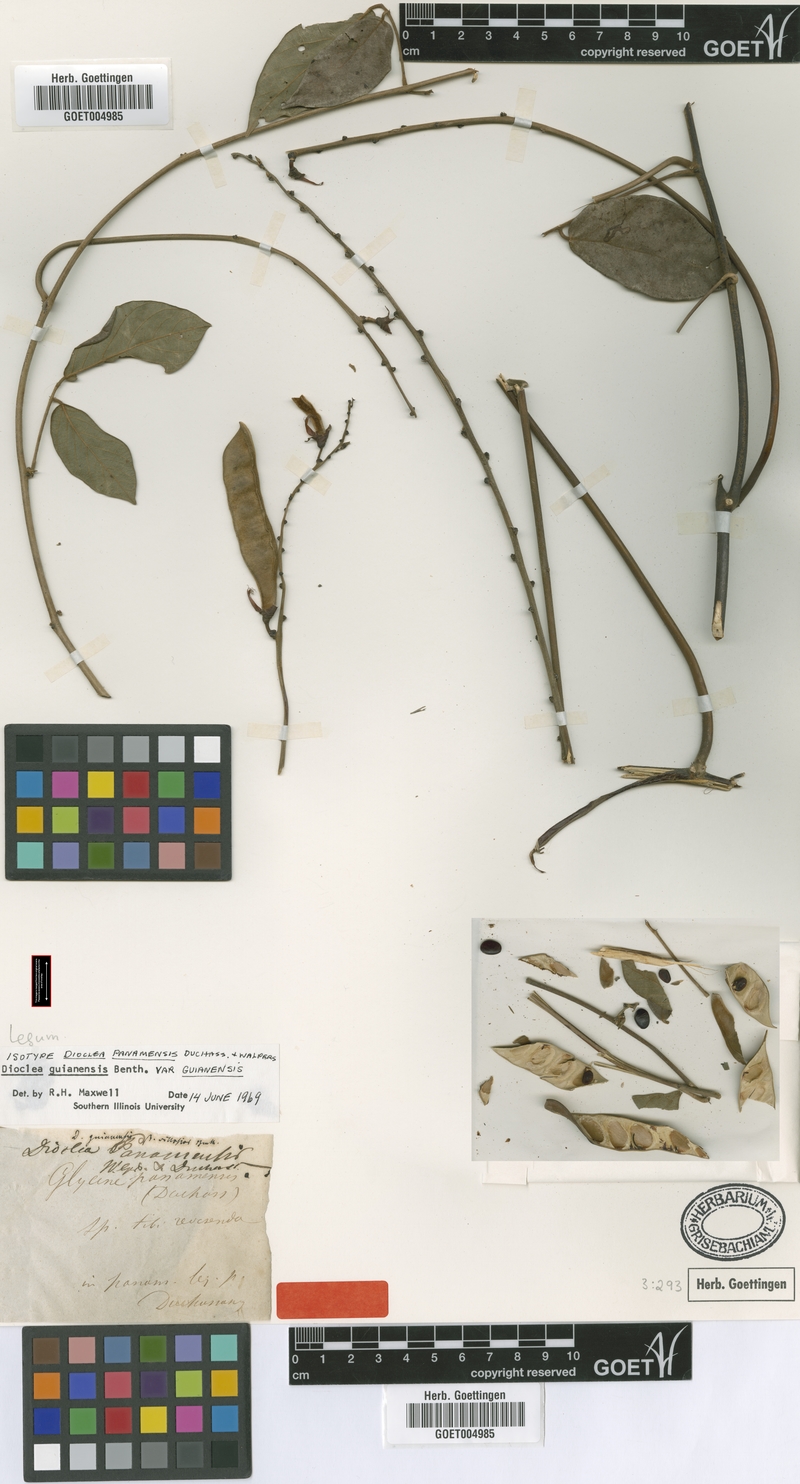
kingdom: Plantae
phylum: Tracheophyta
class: Magnoliopsida
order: Fabales
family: Fabaceae
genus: Dioclea
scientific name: Dioclea guianensis
